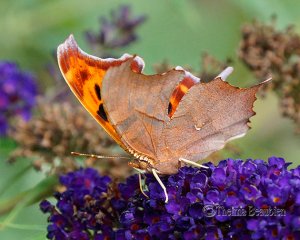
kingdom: Animalia
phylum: Arthropoda
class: Insecta
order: Lepidoptera
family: Nymphalidae
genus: Polygonia
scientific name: Polygonia interrogationis
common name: Question Mark
